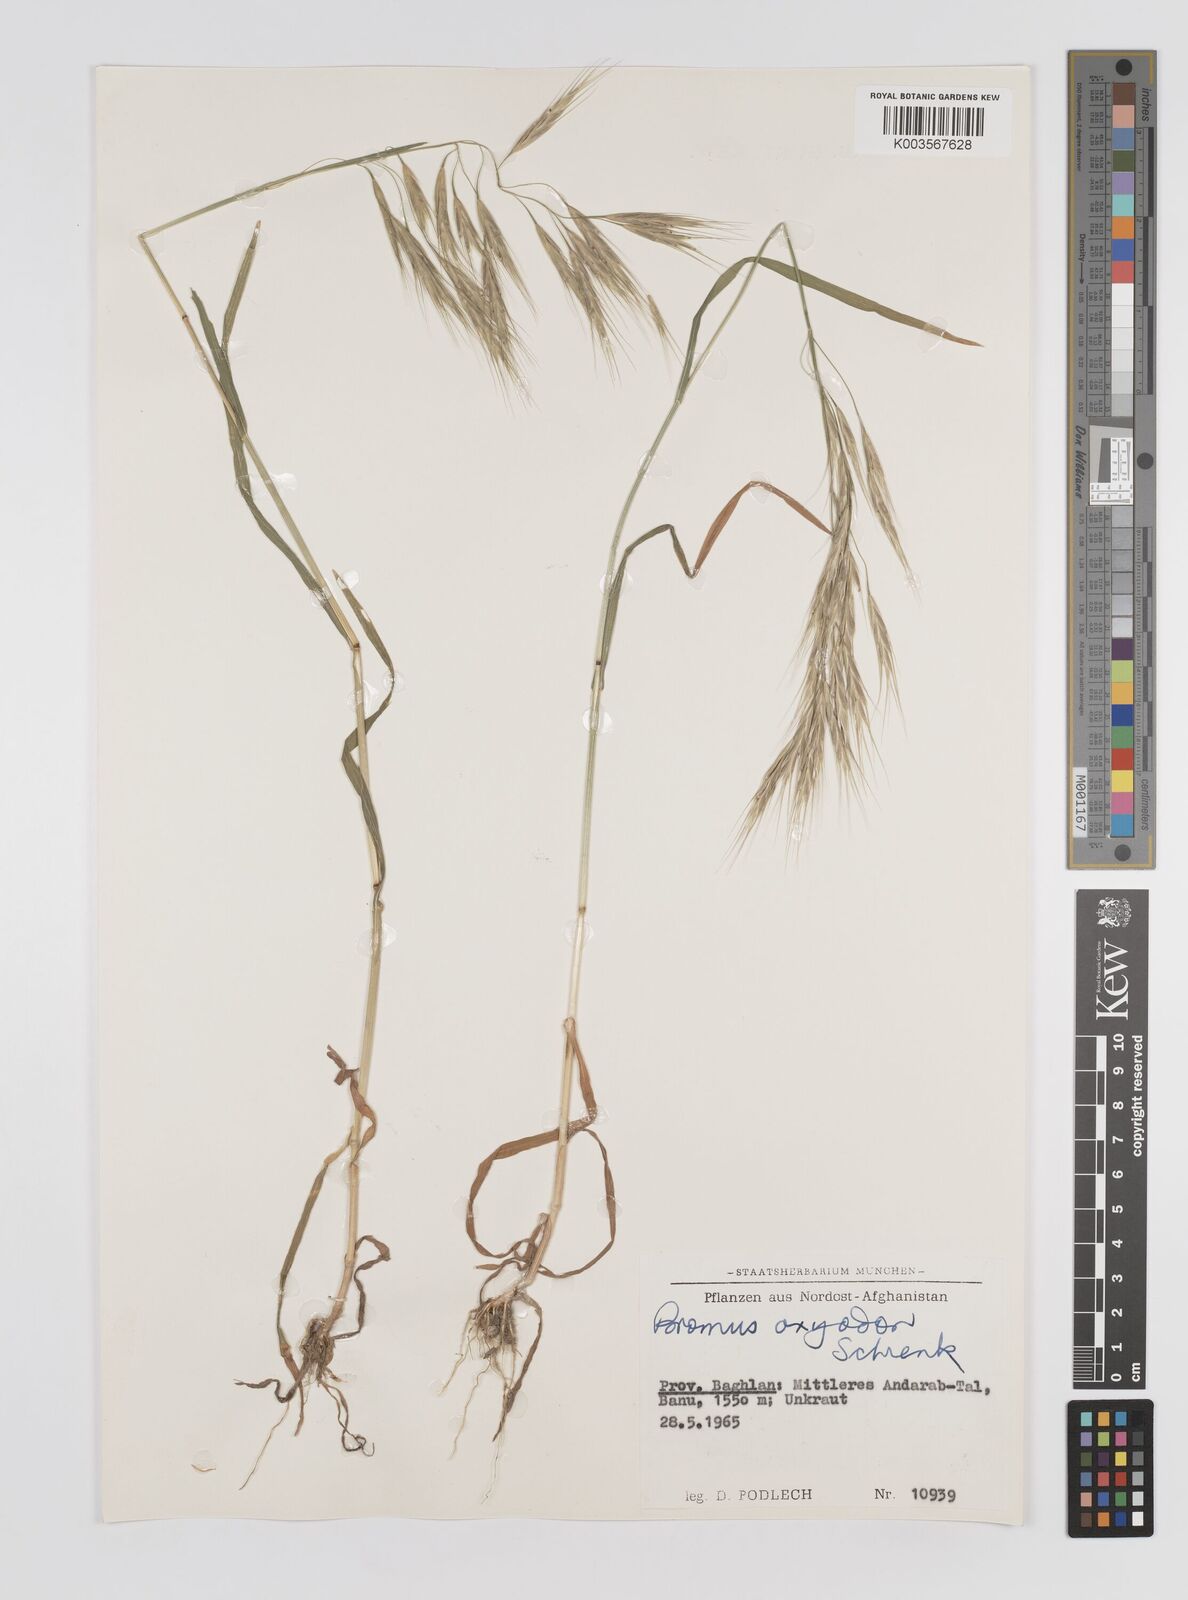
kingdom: Plantae
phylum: Tracheophyta
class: Liliopsida
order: Poales
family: Poaceae
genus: Bromus
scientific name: Bromus oxyodon
